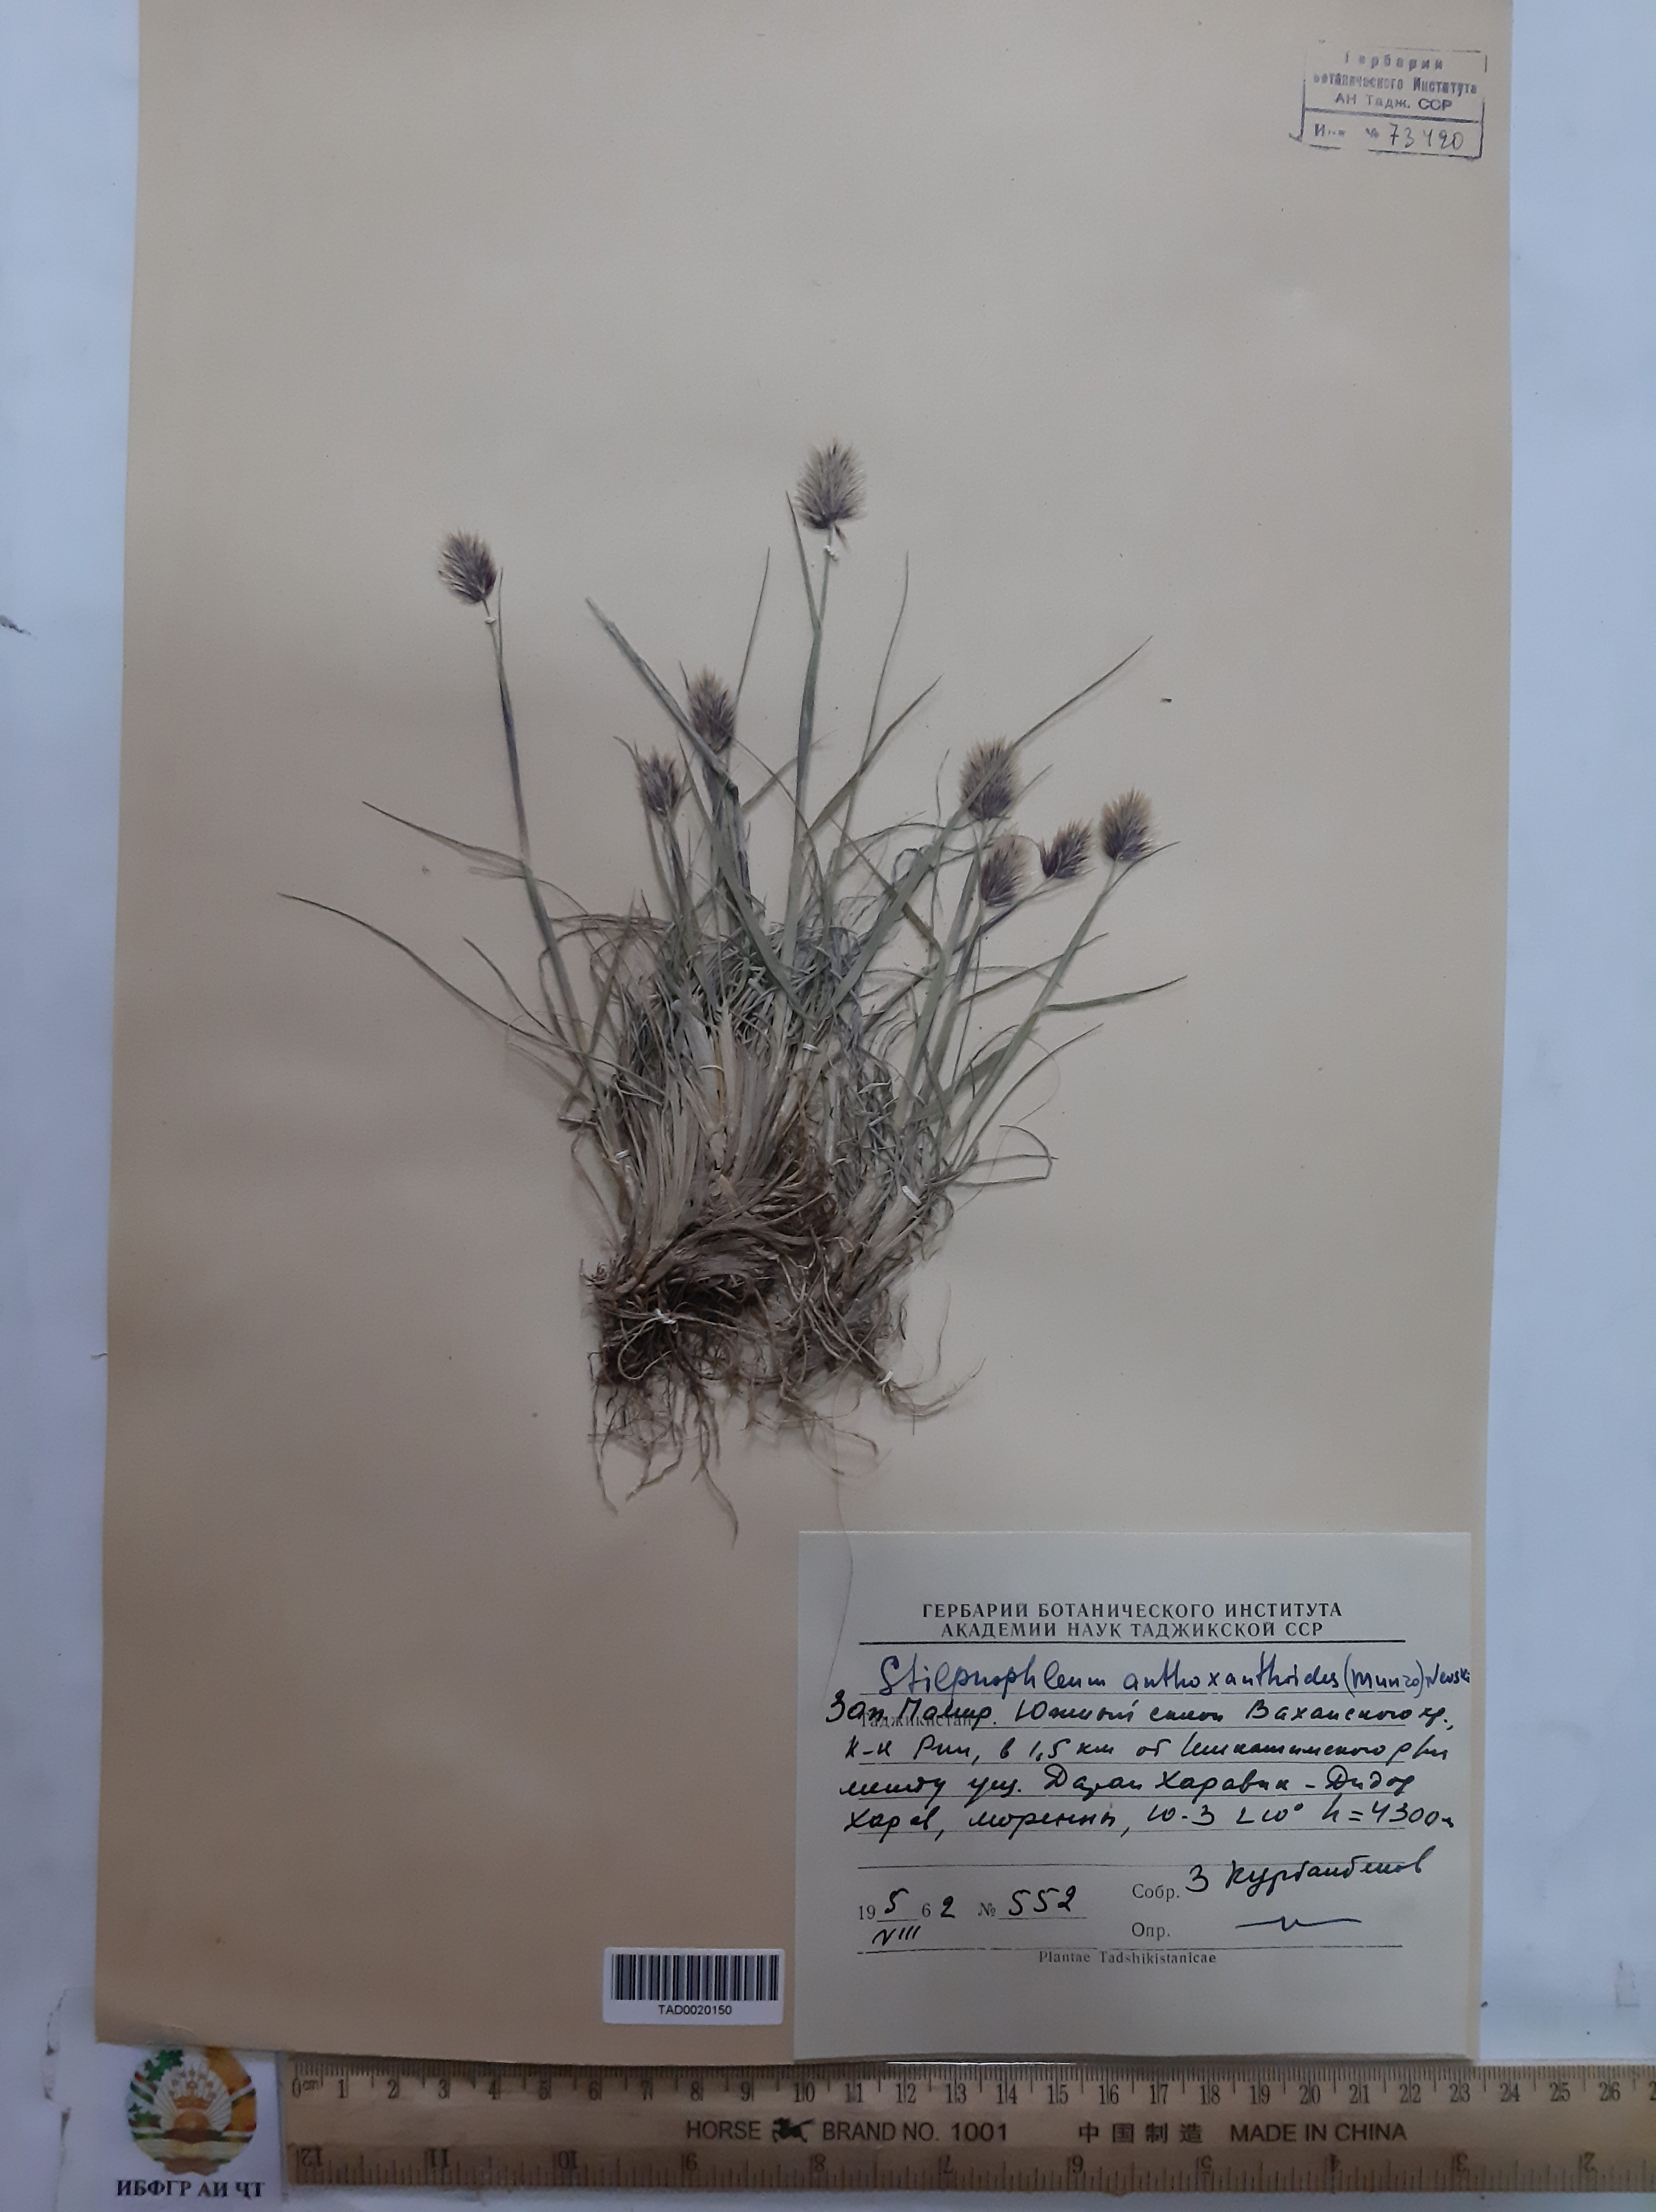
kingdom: Plantae
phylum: Tracheophyta
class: Liliopsida
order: Poales
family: Poaceae
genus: Calamagrostis
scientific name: Calamagrostis anthoxanthoides
